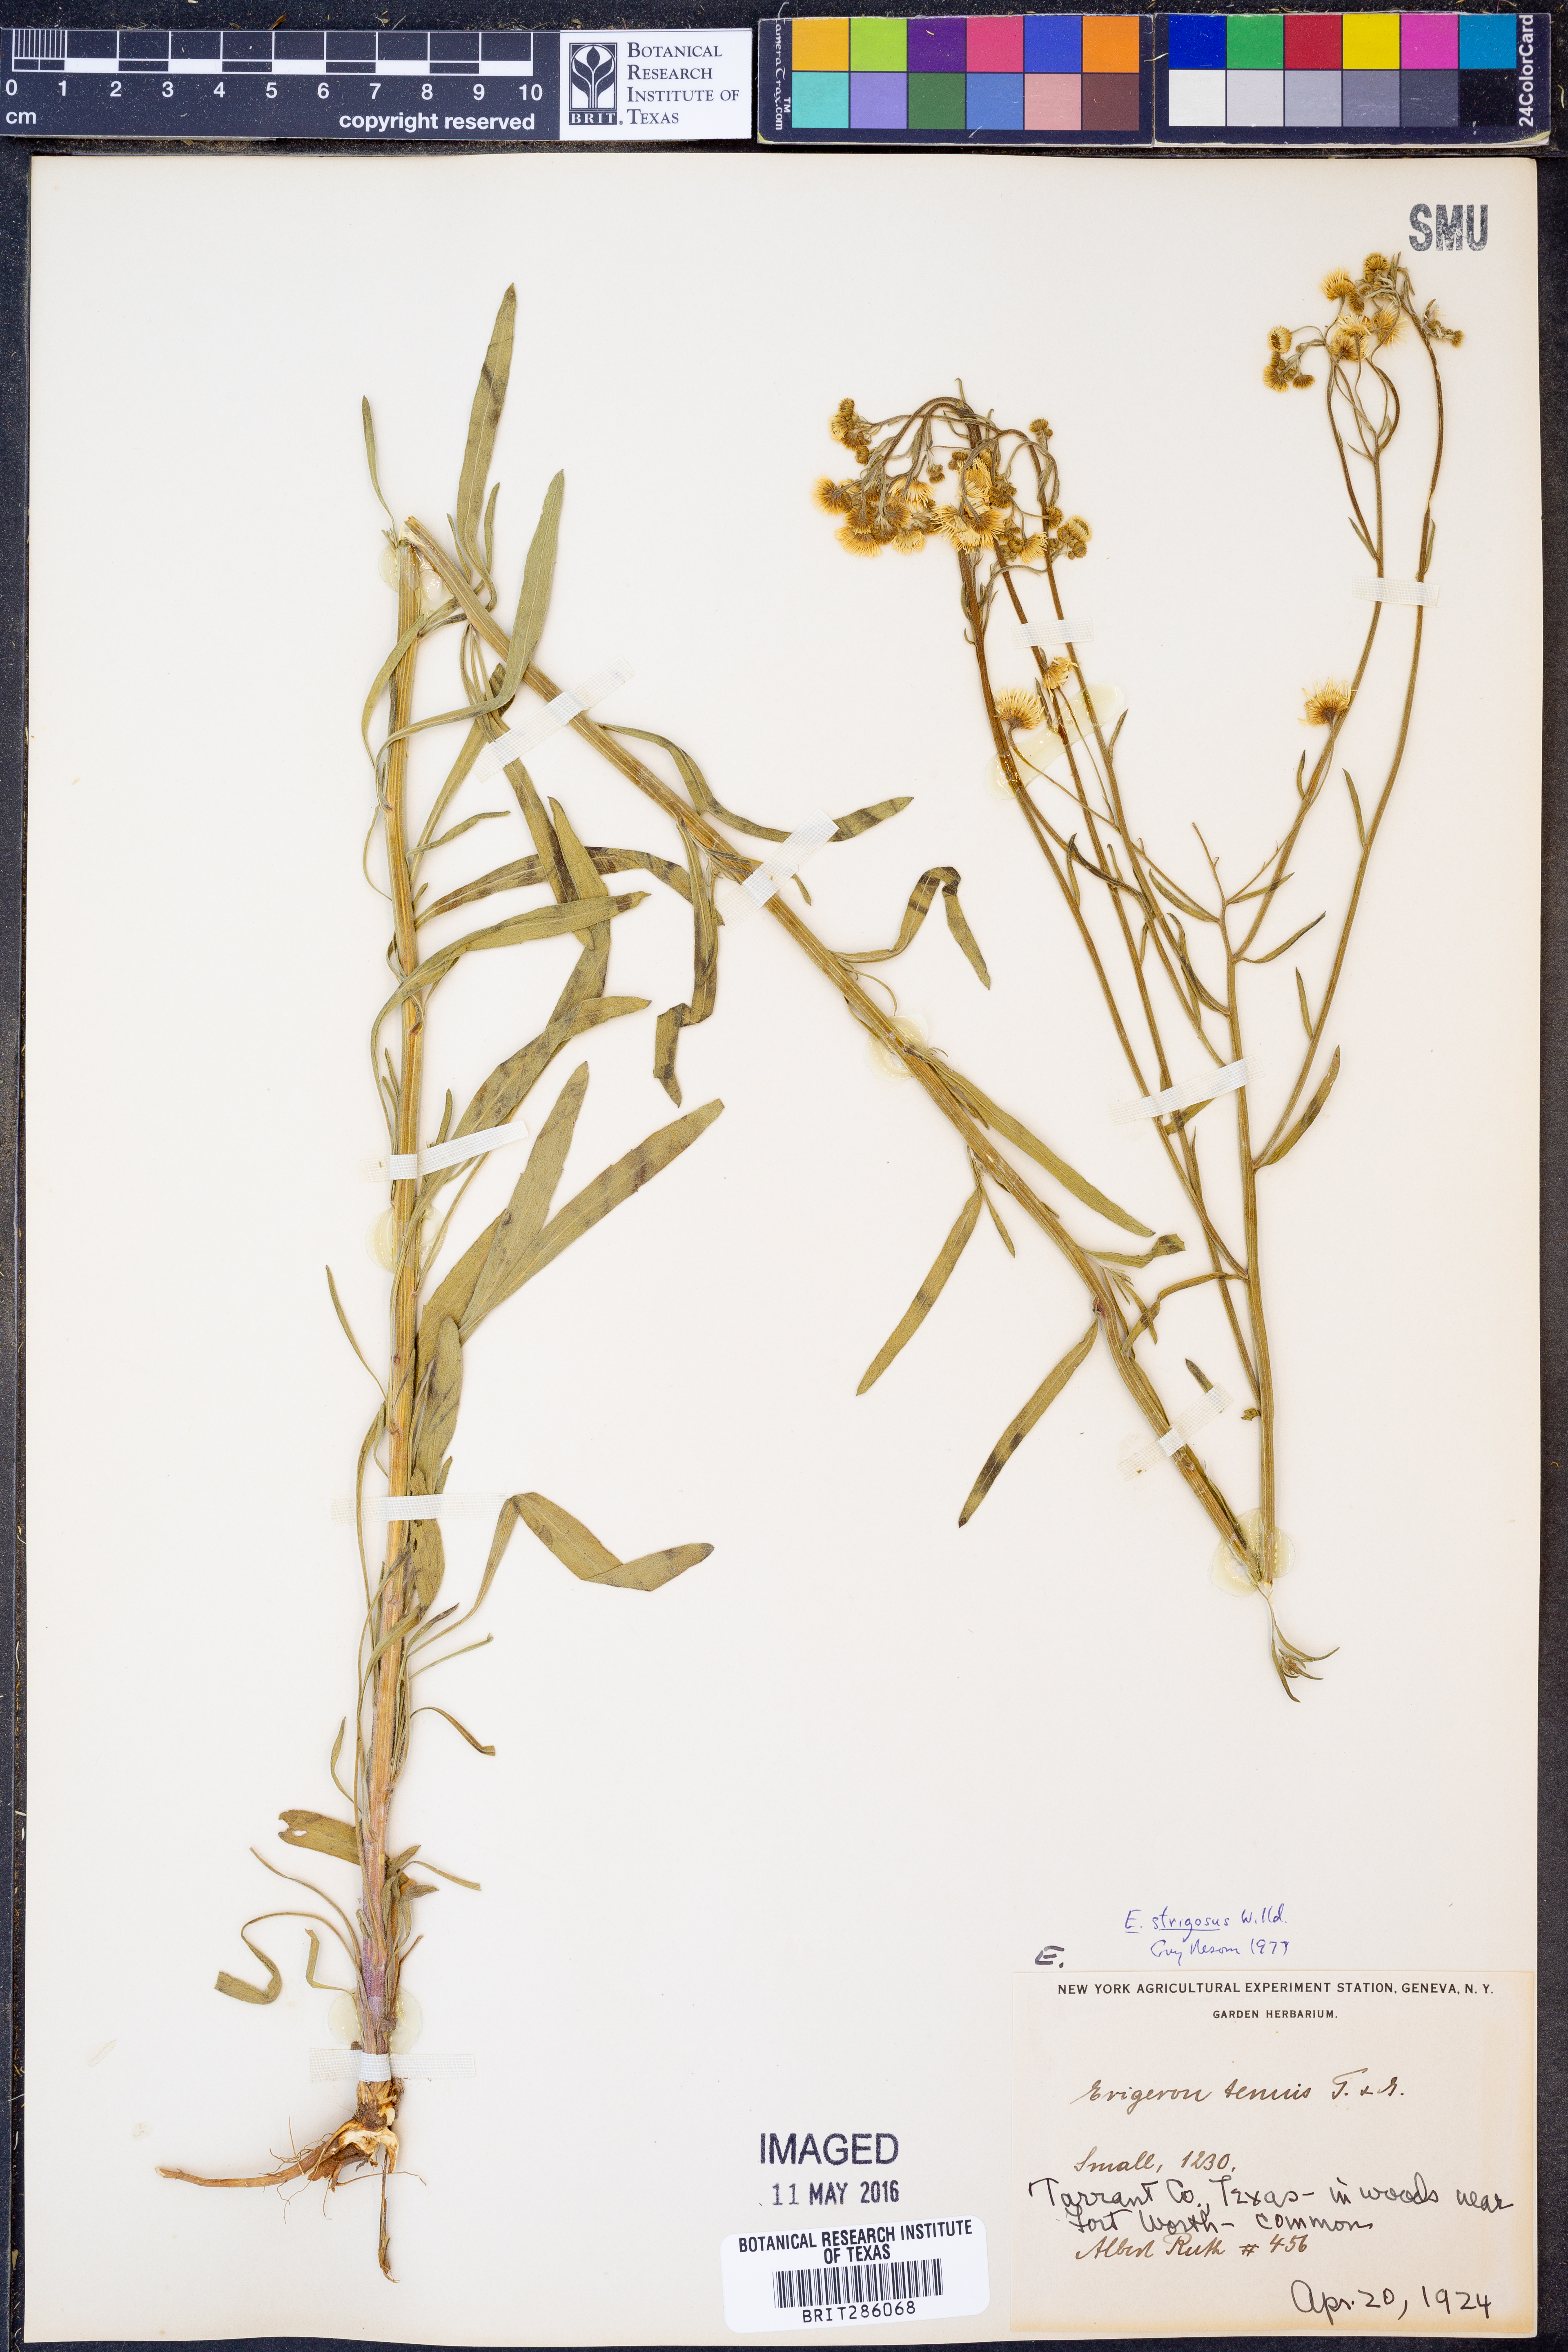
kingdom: Plantae
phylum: Tracheophyta
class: Magnoliopsida
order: Asterales
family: Asteraceae
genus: Erigeron
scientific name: Erigeron strigosus
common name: Common eastern fleabane
